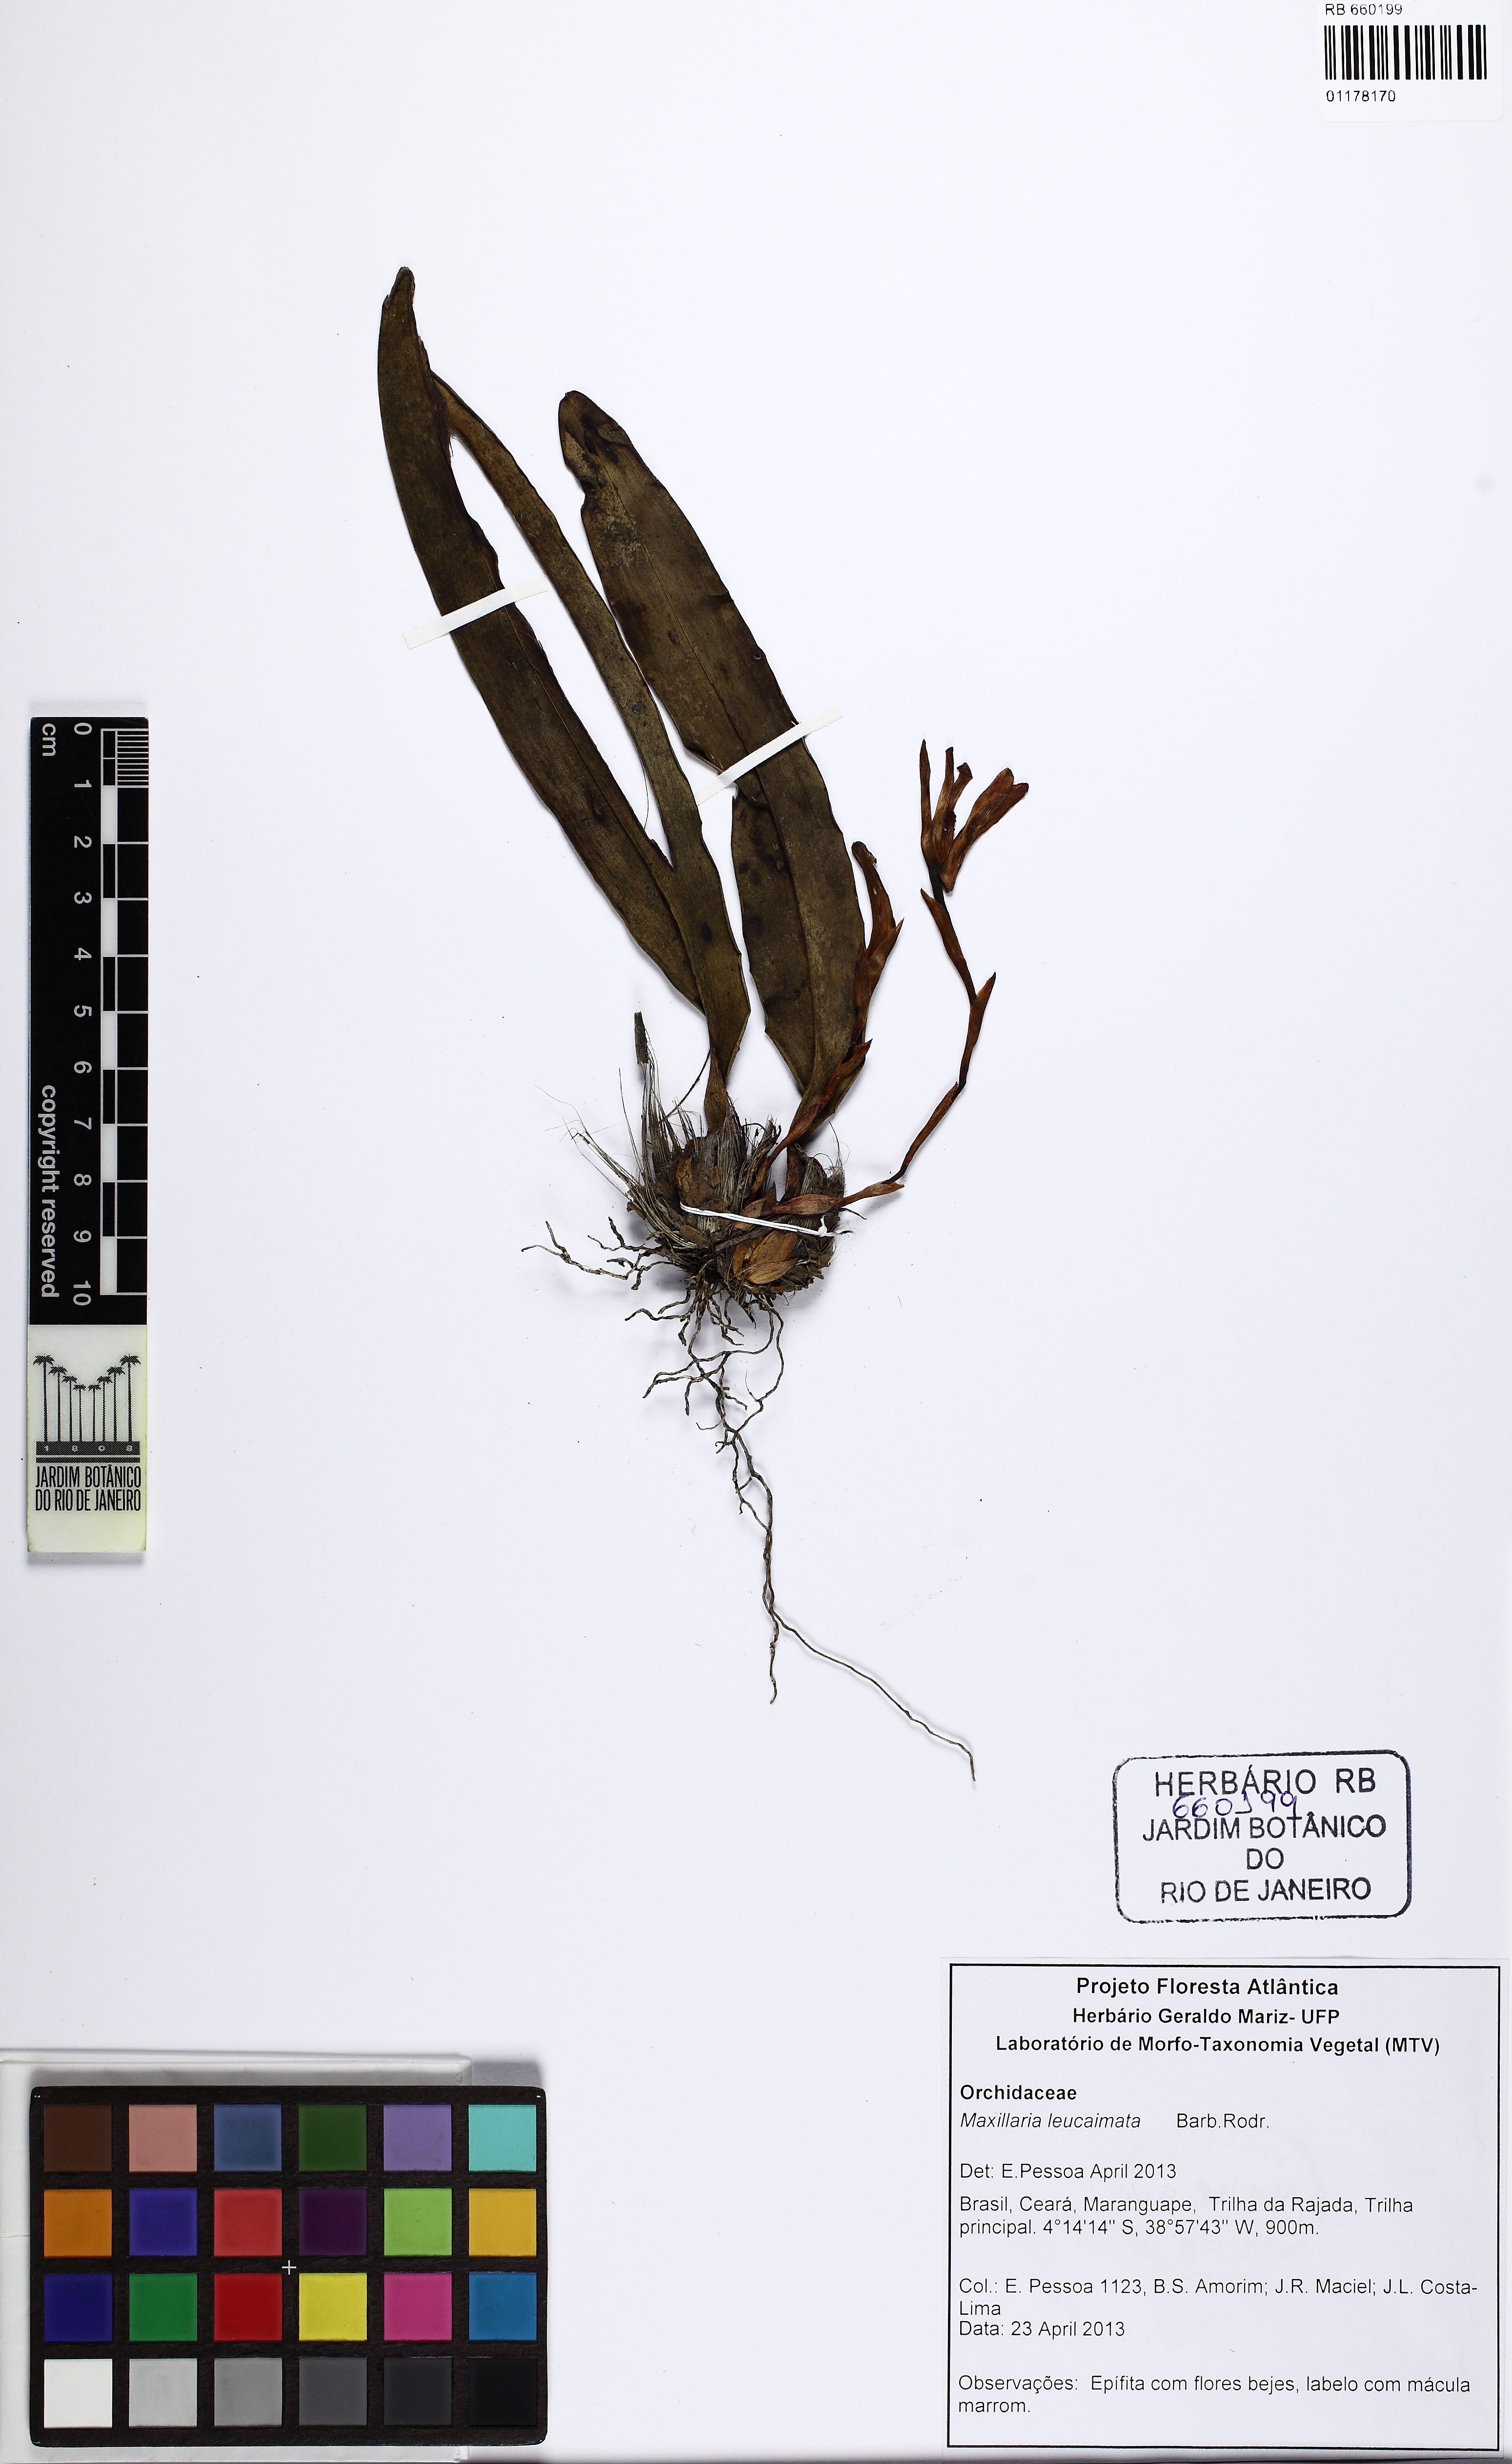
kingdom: Plantae
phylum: Tracheophyta
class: Liliopsida
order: Asparagales
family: Orchidaceae
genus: Maxillaria
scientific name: Maxillaria leucaimata
